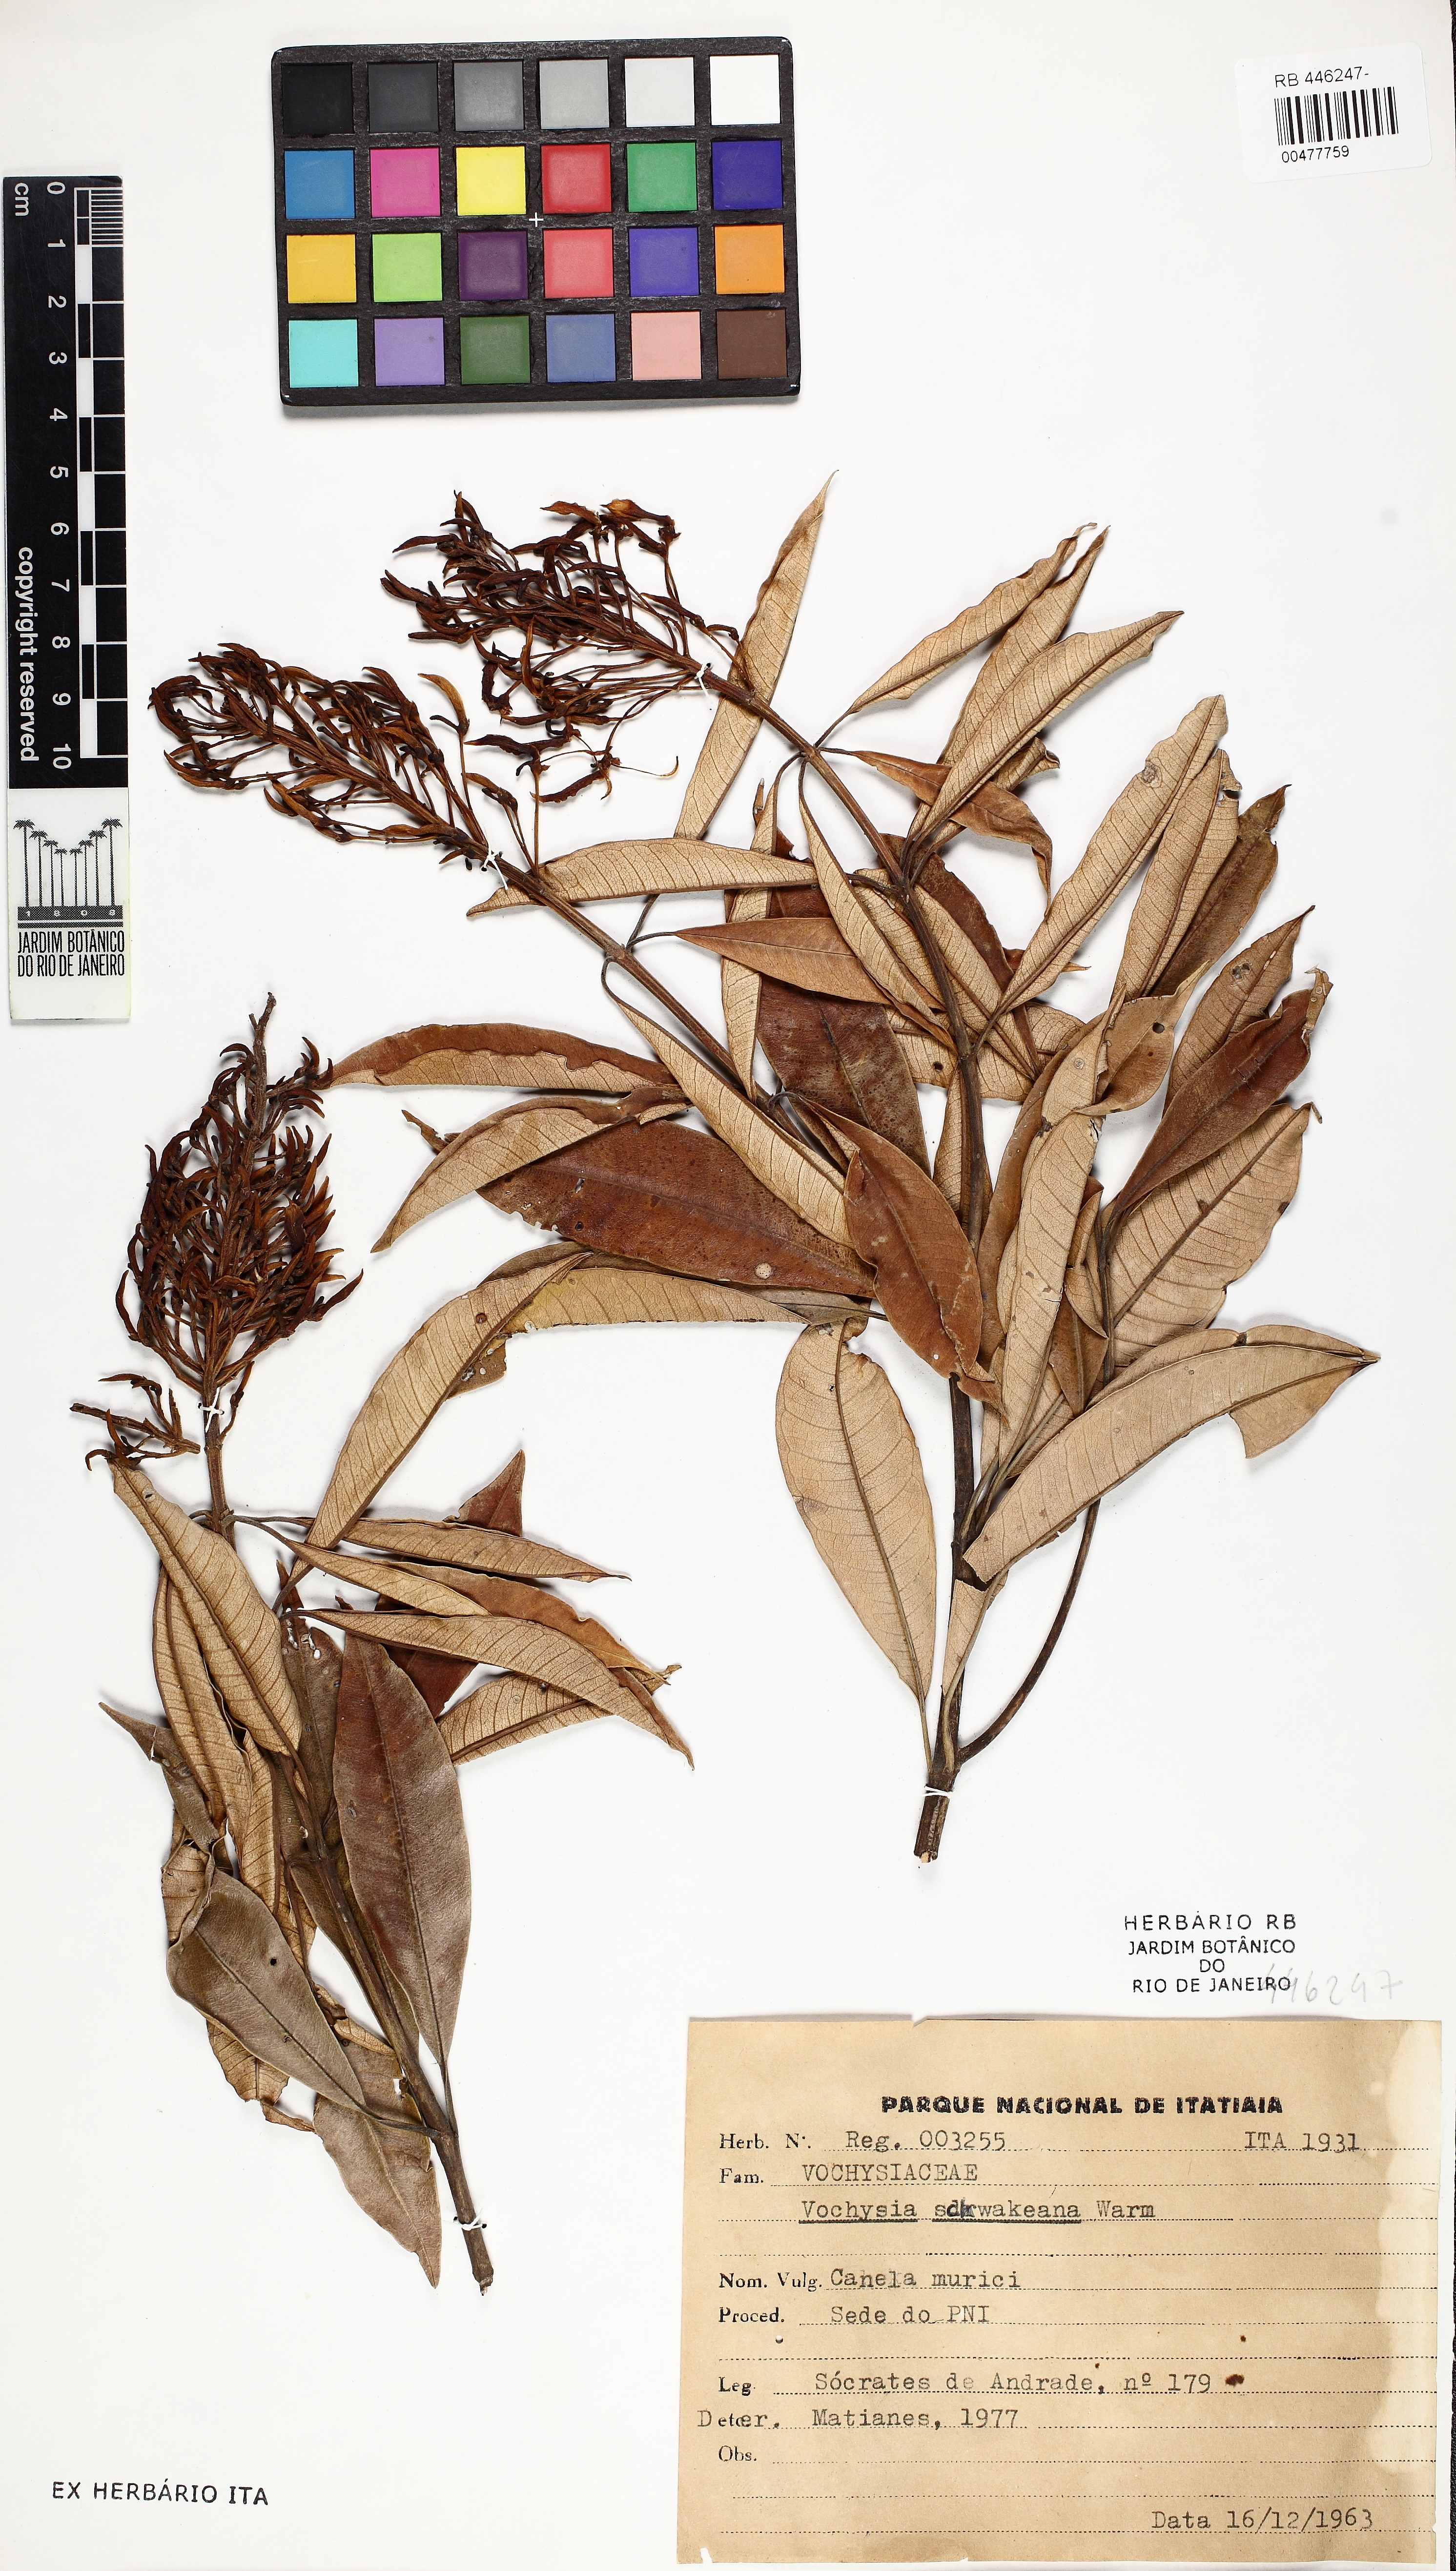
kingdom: Plantae
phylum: Tracheophyta
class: Magnoliopsida
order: Myrtales
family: Vochysiaceae
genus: Vochysia
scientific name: Vochysia schwackeana
